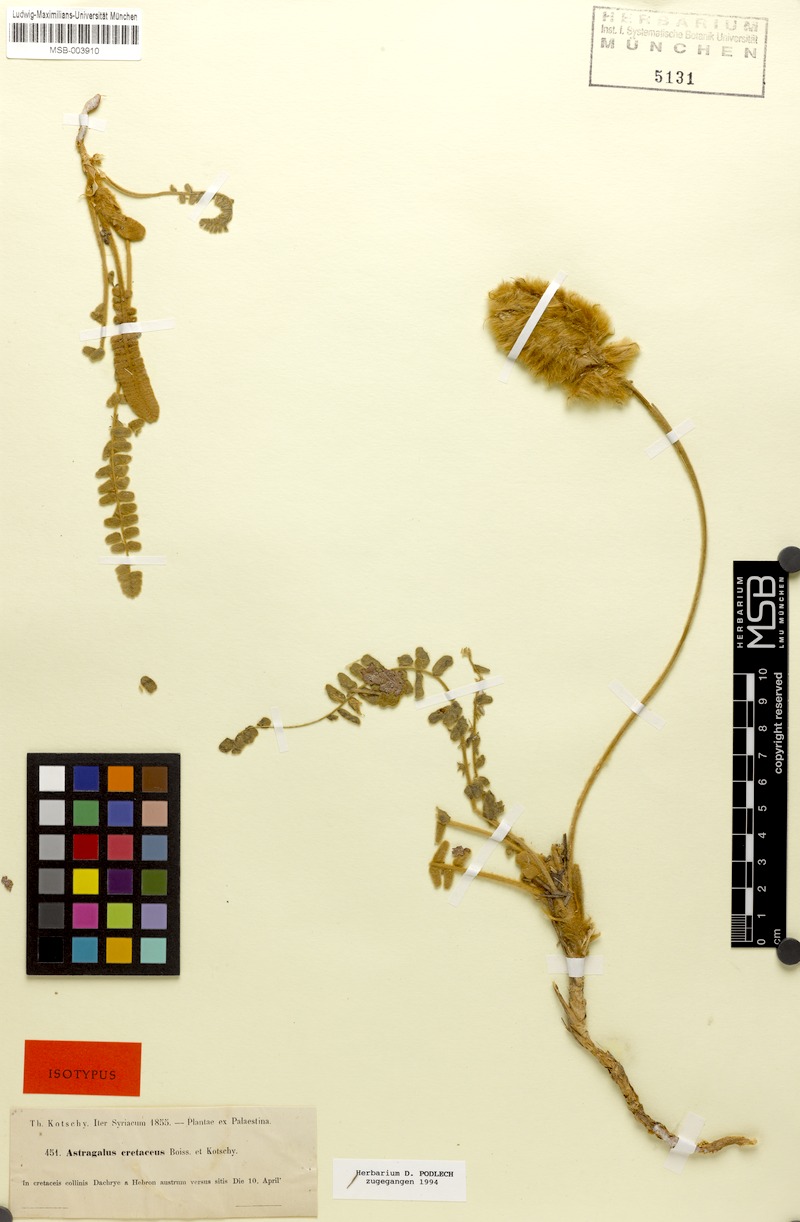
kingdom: Plantae
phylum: Tracheophyta
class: Magnoliopsida
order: Fabales
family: Fabaceae
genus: Astragalus
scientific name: Astragalus cretaceus
